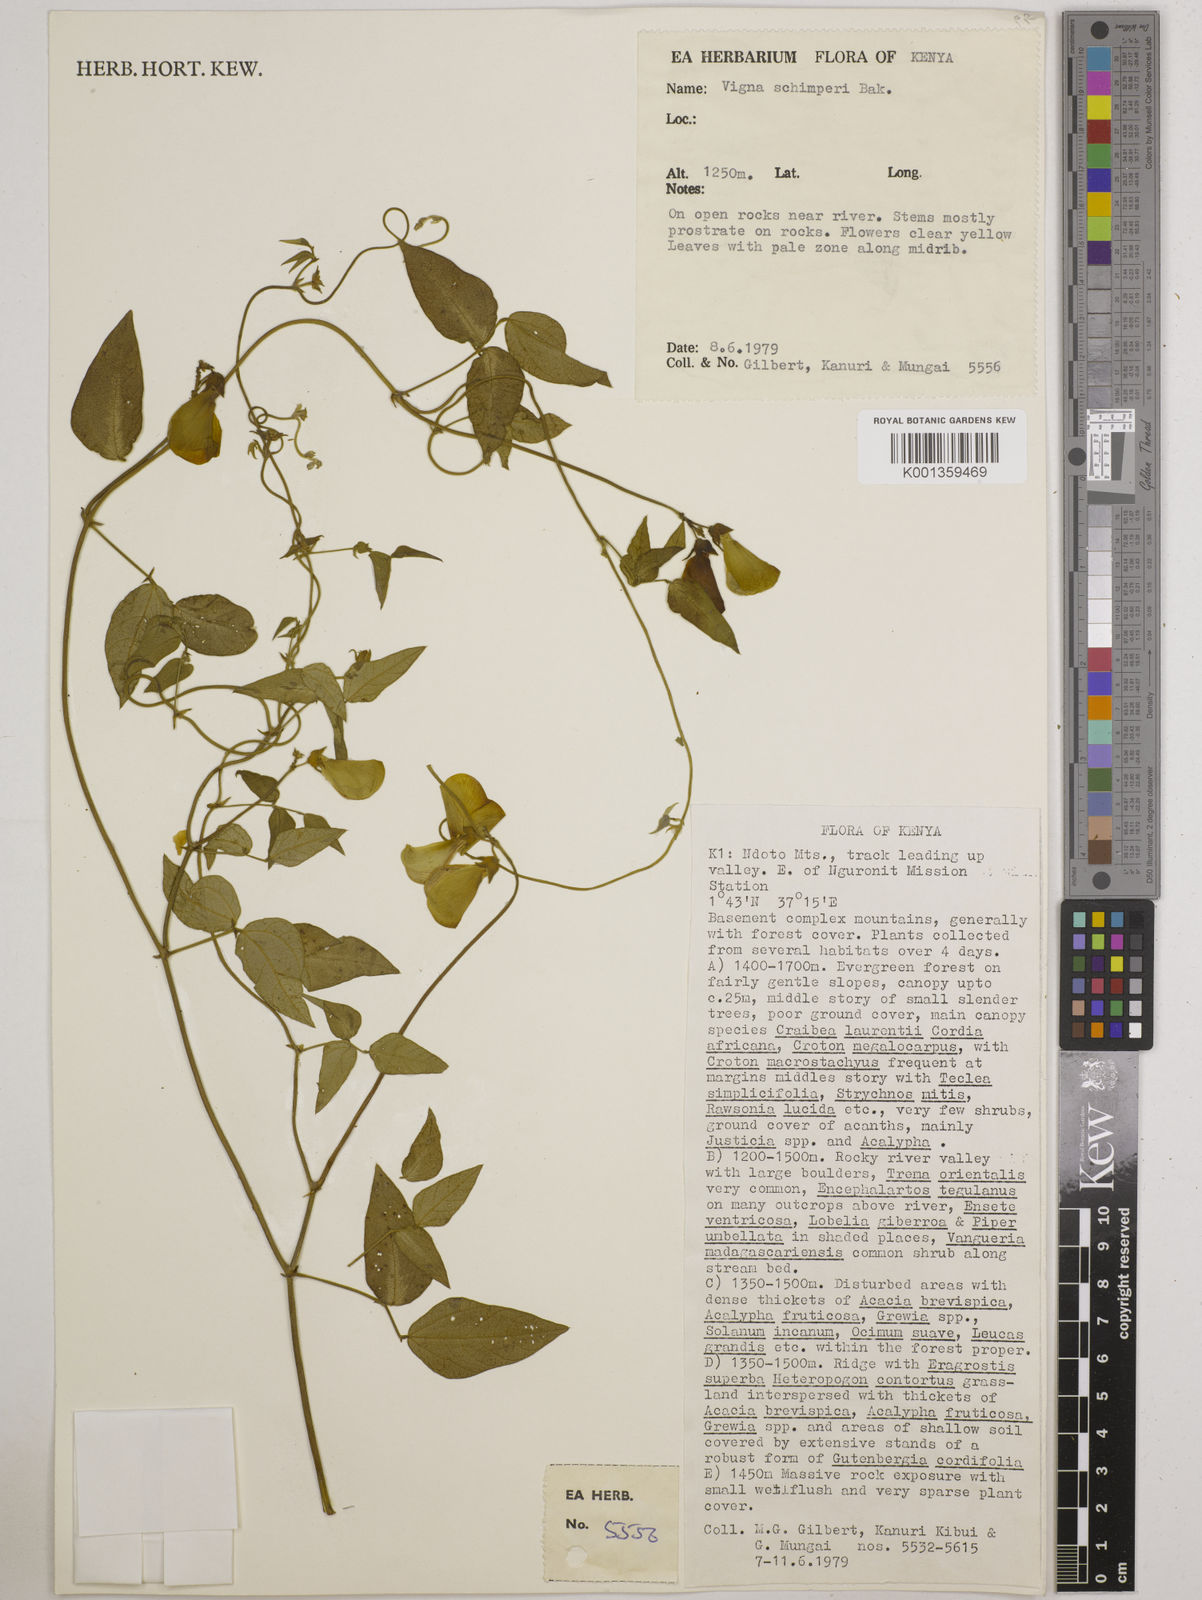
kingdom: Plantae
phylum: Tracheophyta
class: Magnoliopsida
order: Fabales
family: Fabaceae
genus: Vigna
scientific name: Vigna schimperi
